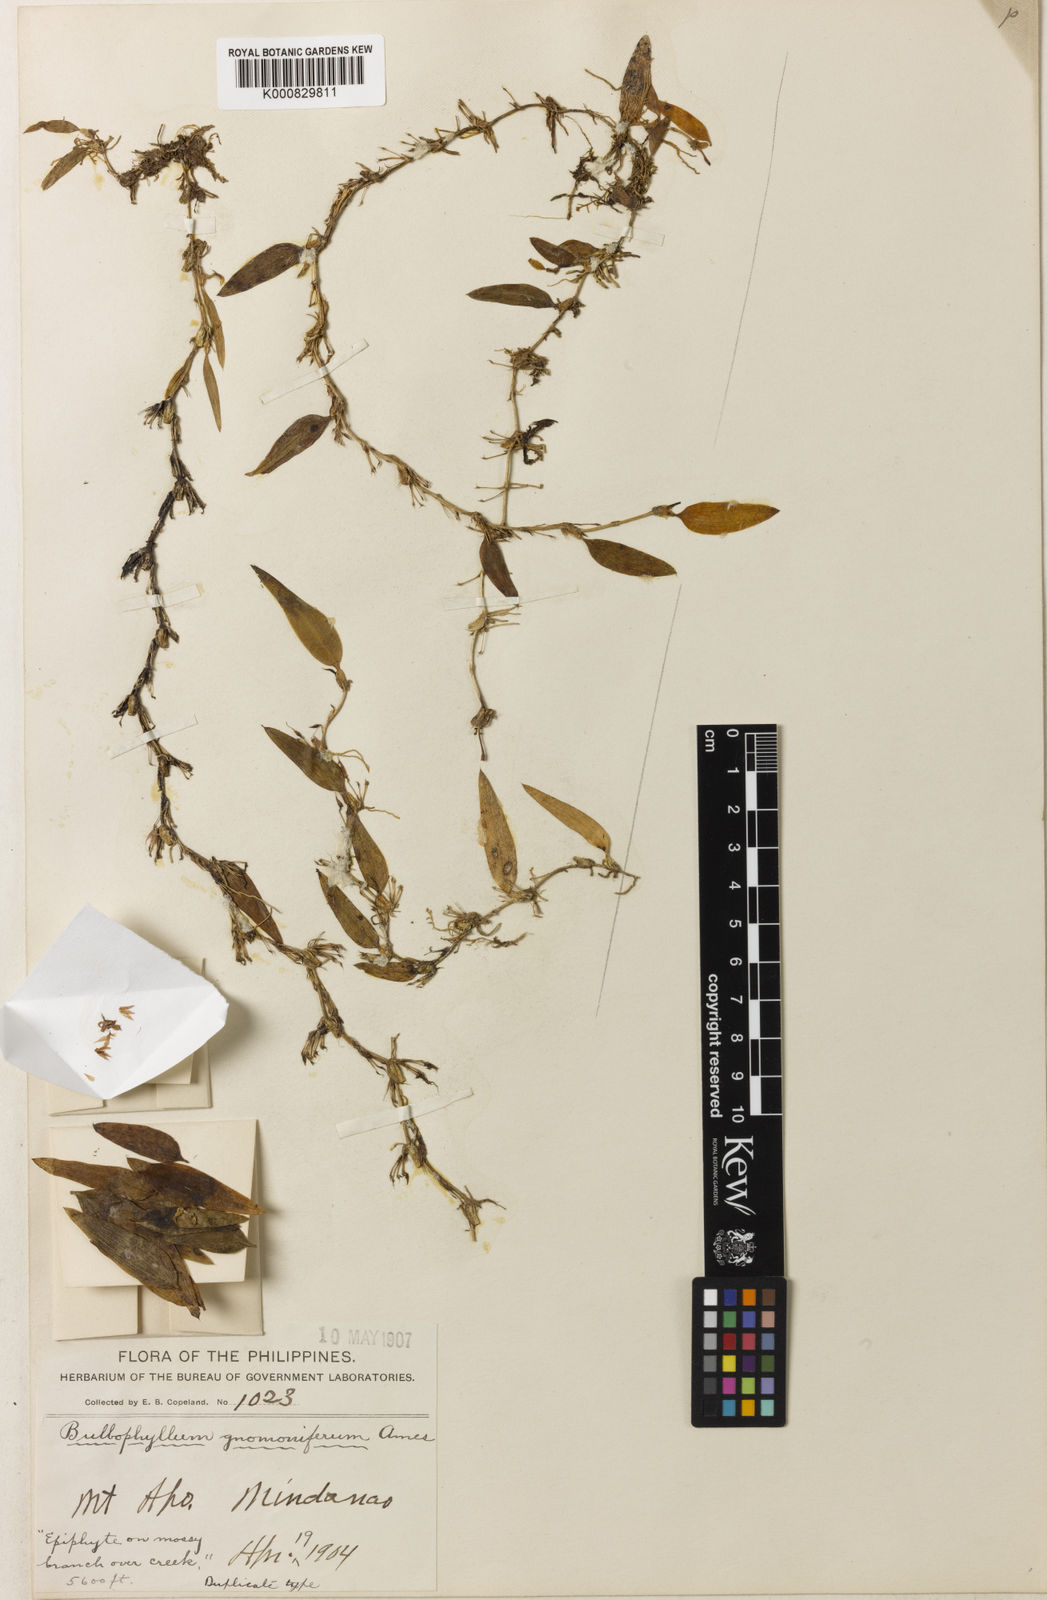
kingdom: Plantae
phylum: Tracheophyta
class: Liliopsida
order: Asparagales
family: Orchidaceae
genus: Bulbophyllum
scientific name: Bulbophyllum gnomoniferum
